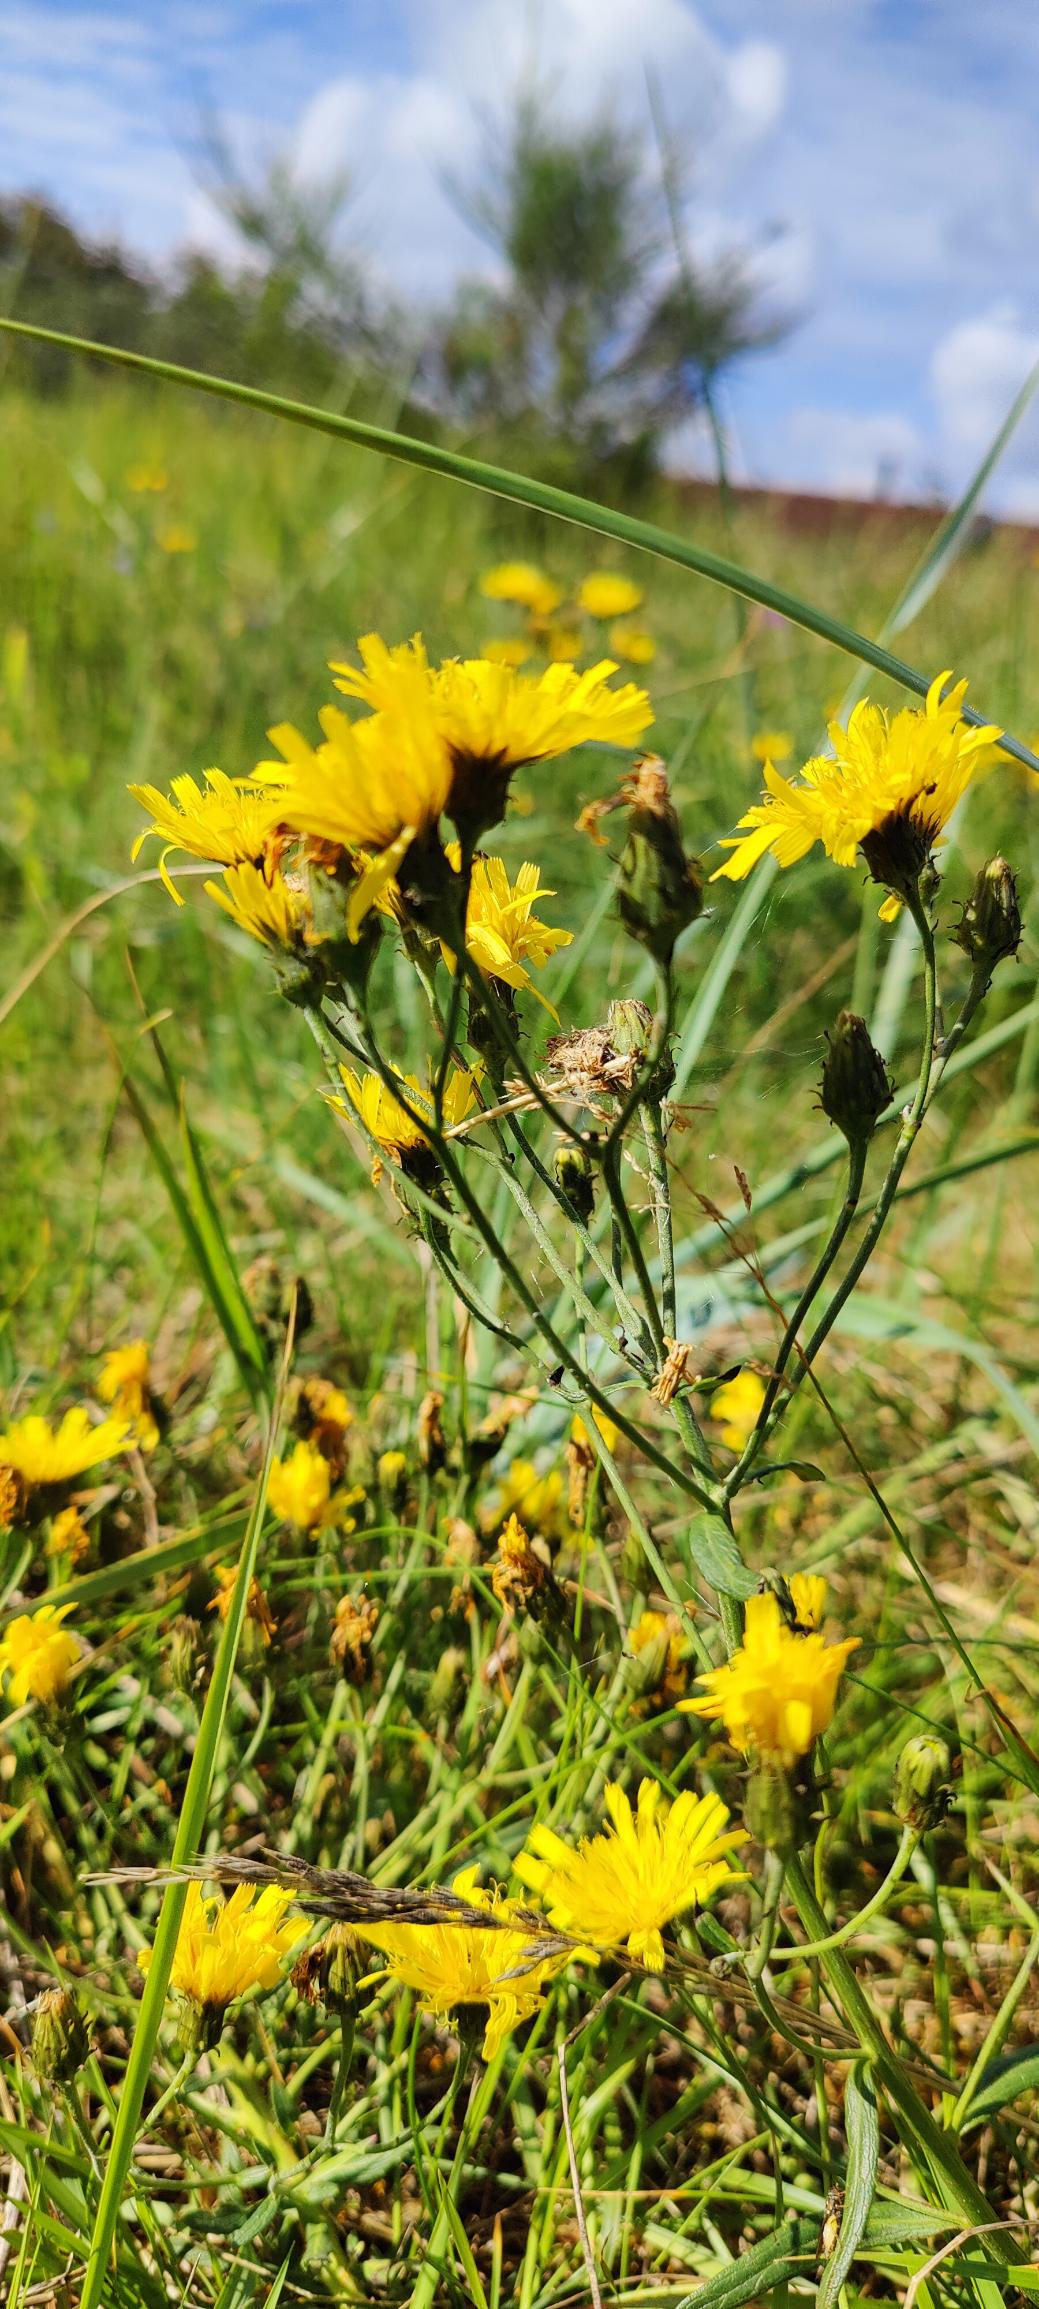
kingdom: Plantae
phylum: Tracheophyta
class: Magnoliopsida
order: Asterales
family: Asteraceae
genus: Hieracium
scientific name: Hieracium umbellatum
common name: Smalbladet høgeurt
